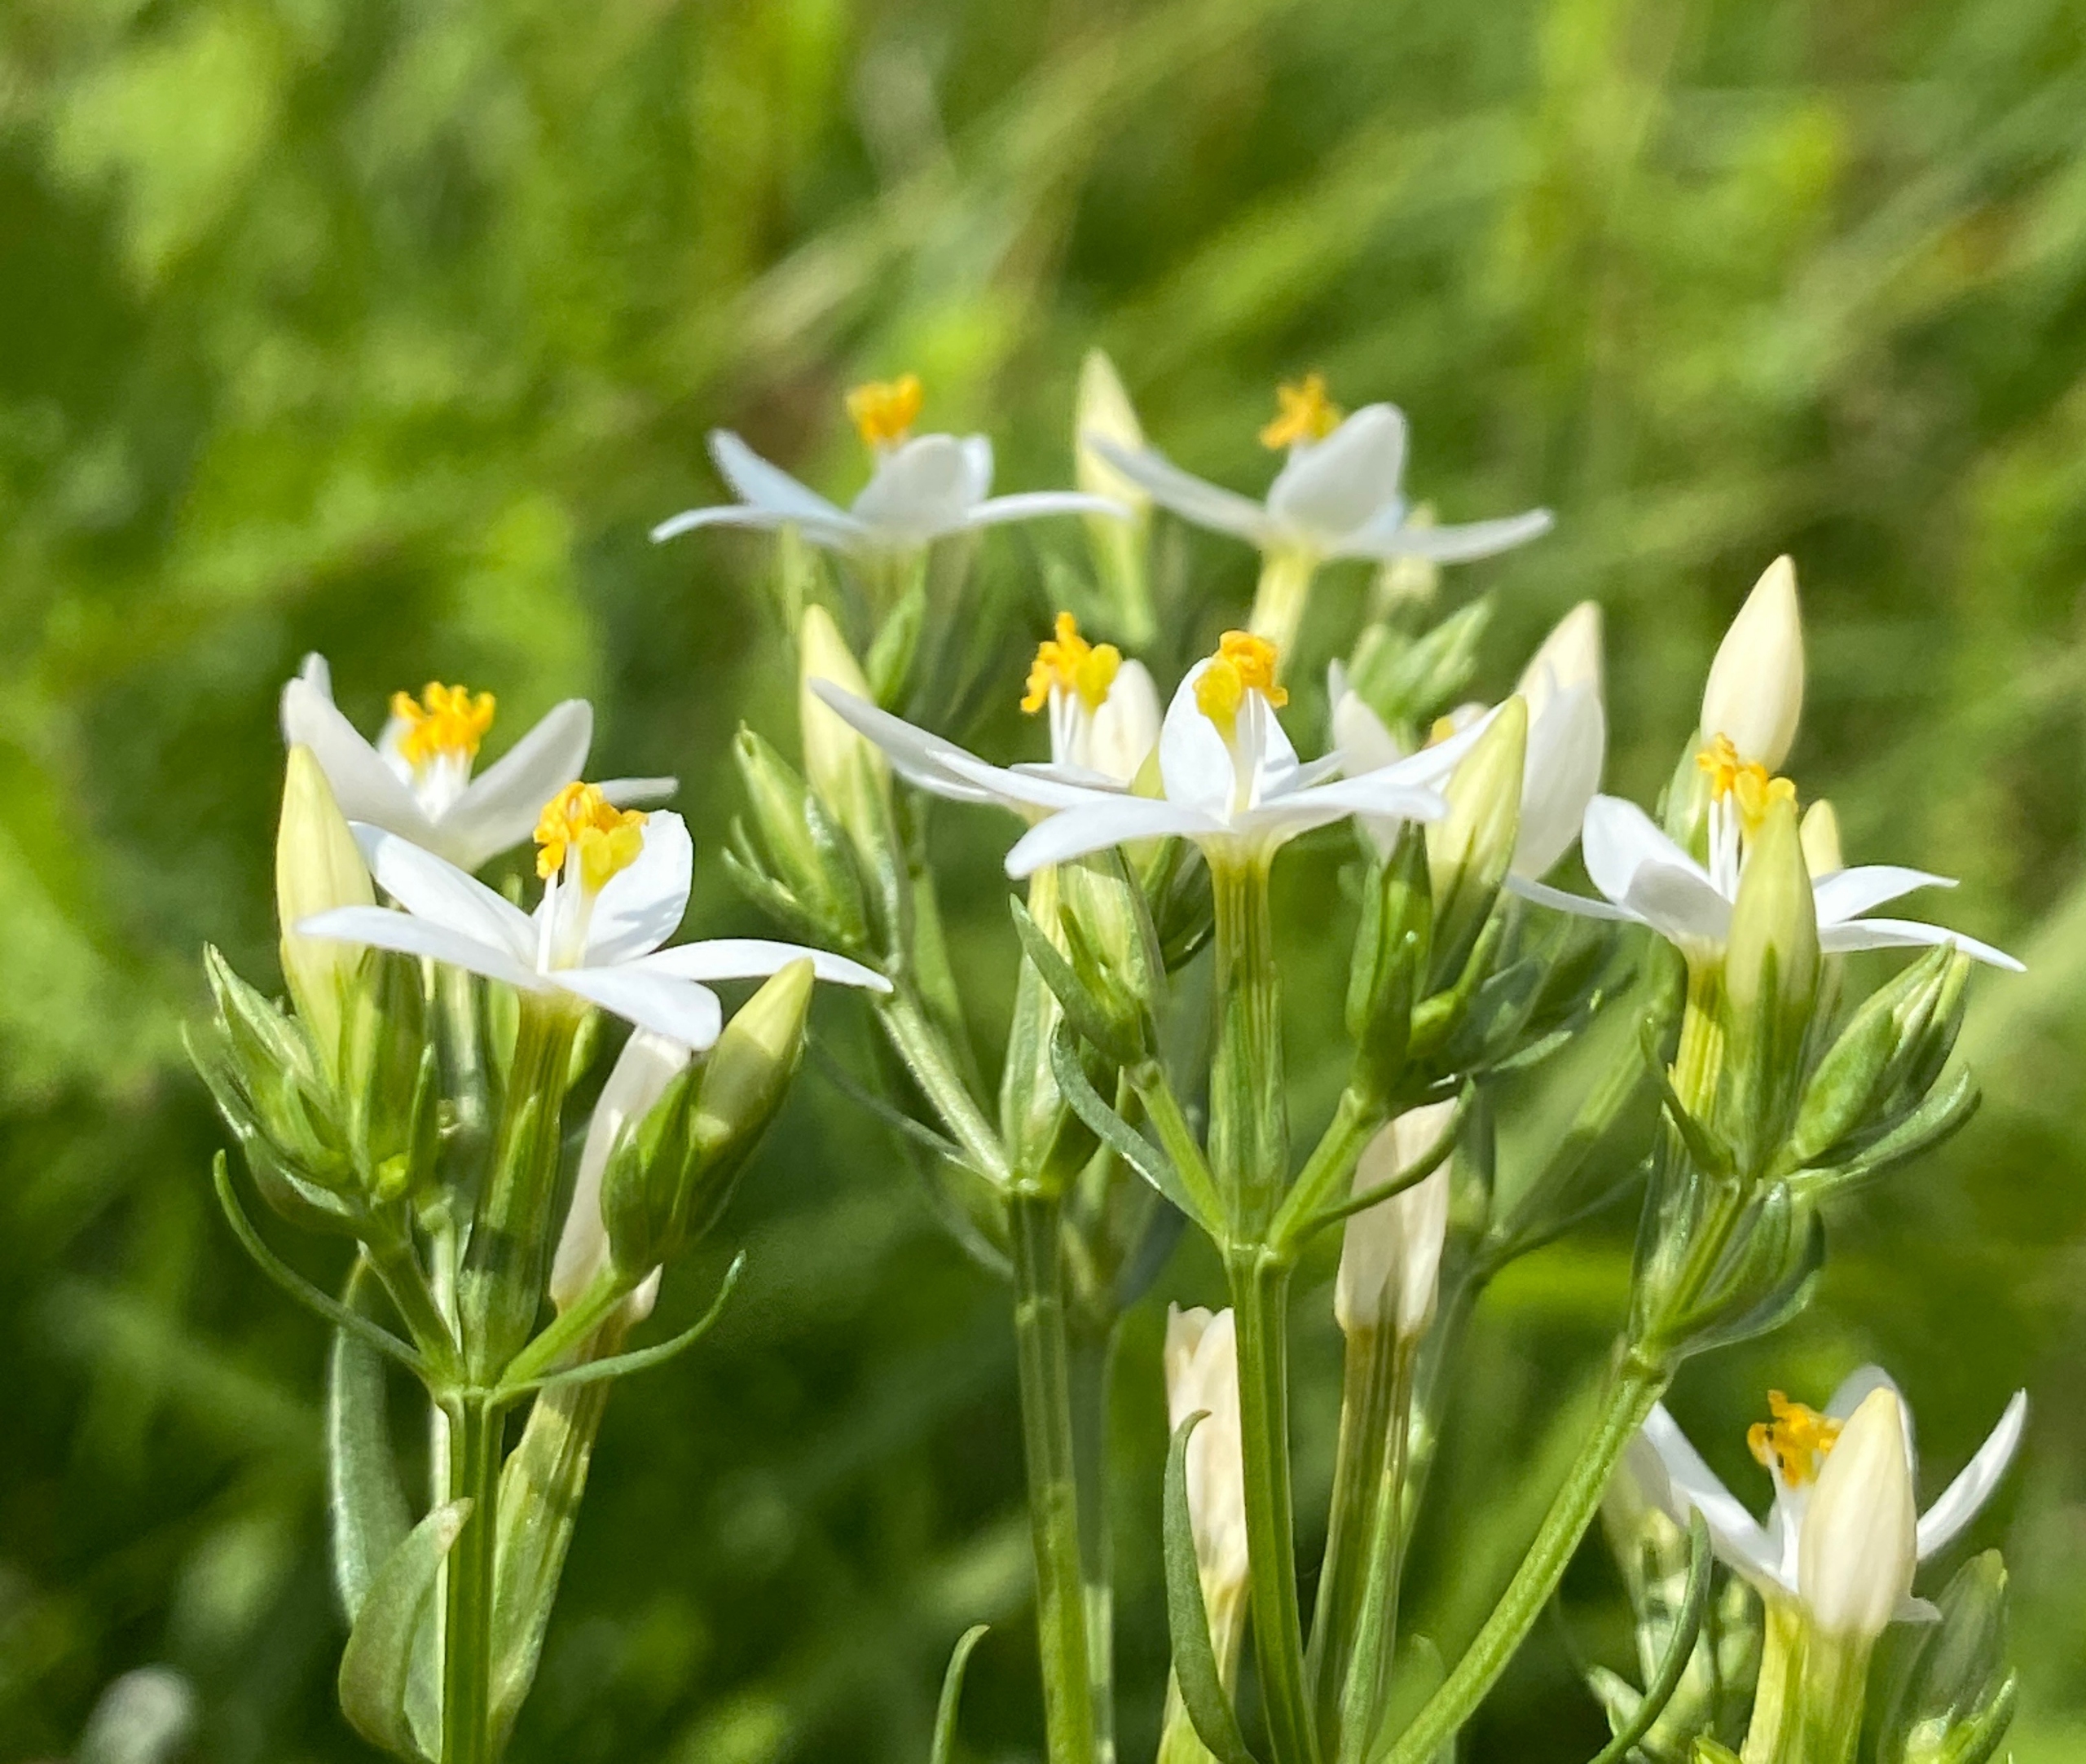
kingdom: Plantae
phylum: Tracheophyta
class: Magnoliopsida
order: Gentianales
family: Gentianaceae
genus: Centaurium
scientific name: Centaurium erythraea
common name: Mark-tusindgylden
